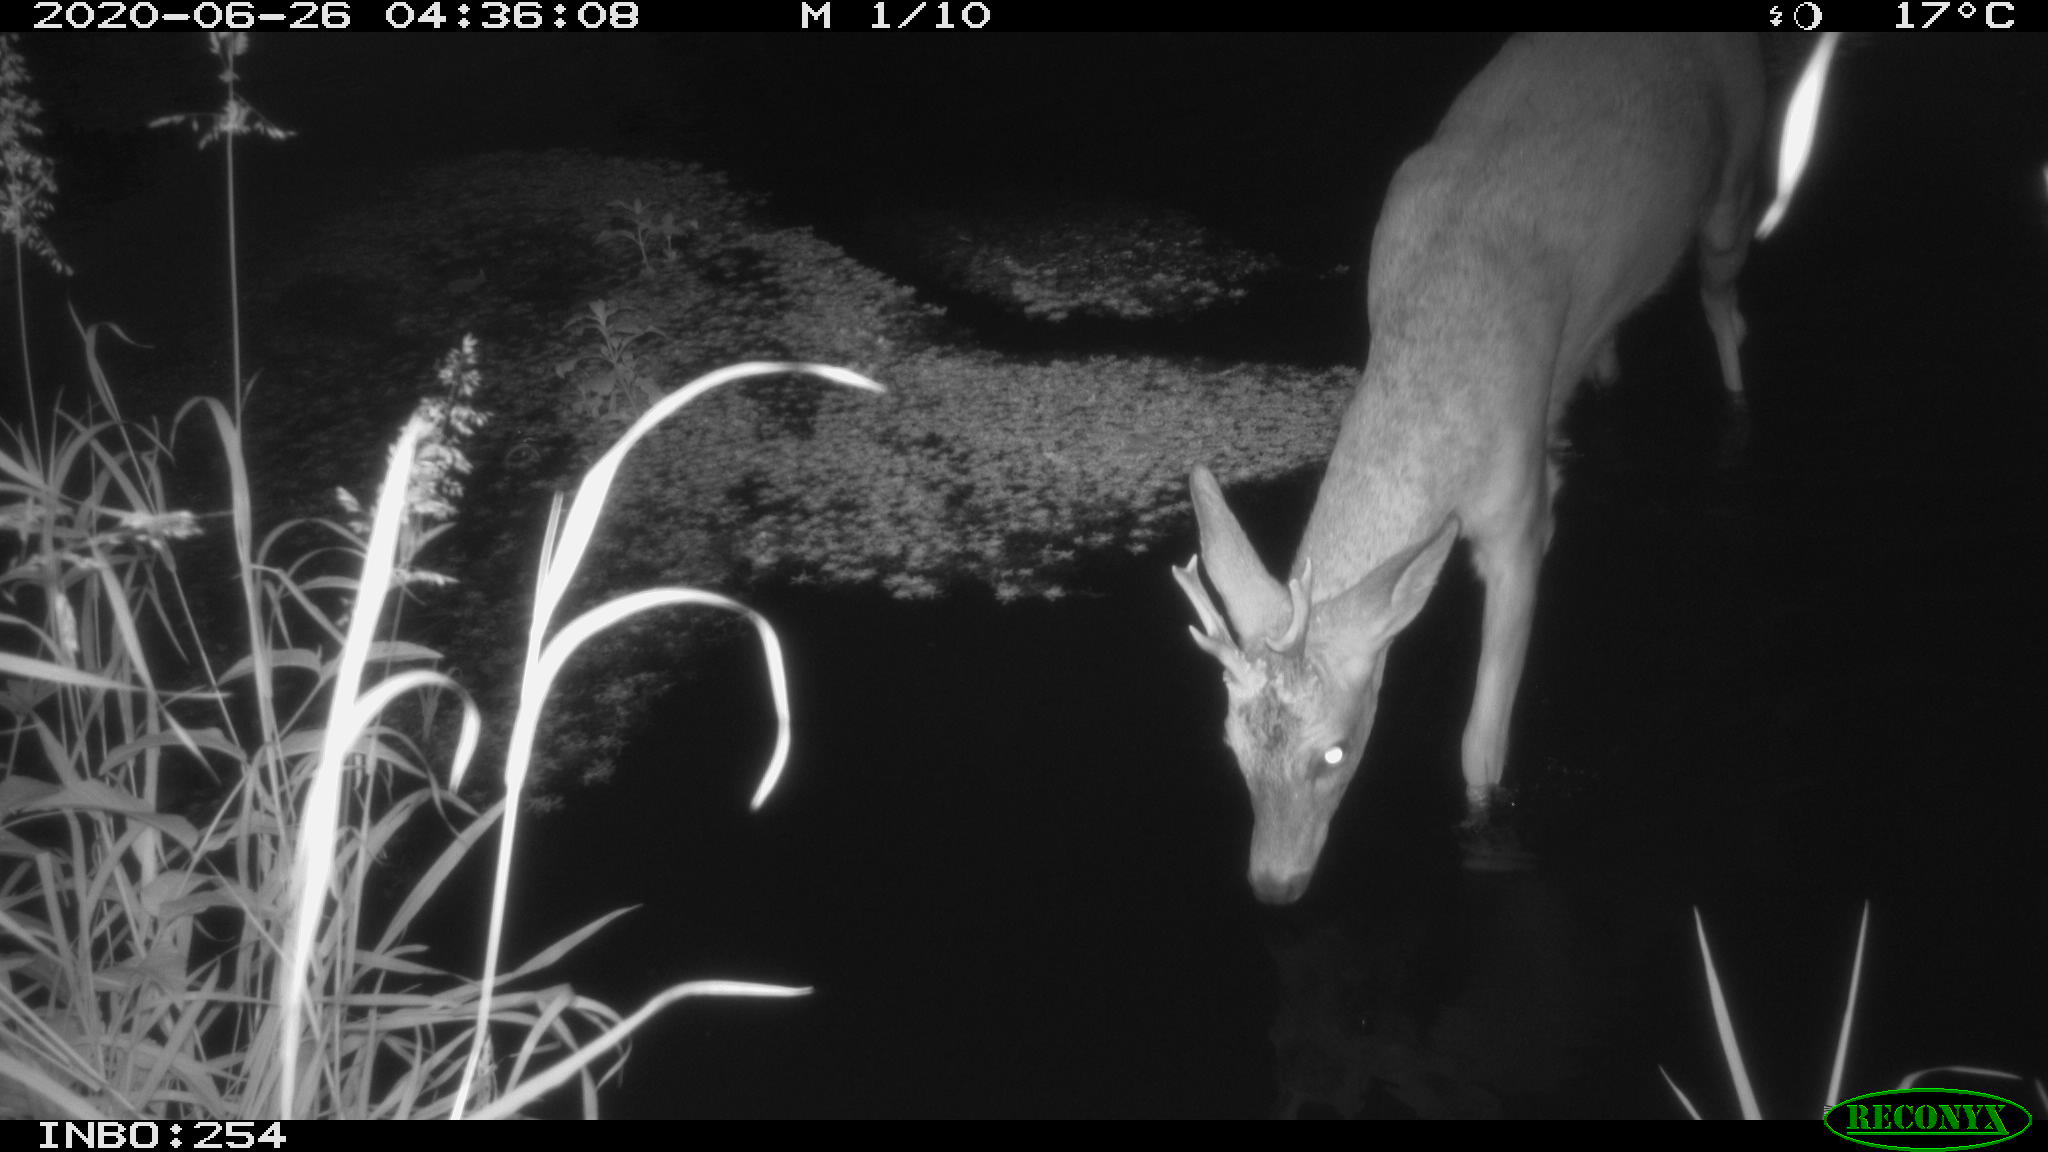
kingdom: Animalia
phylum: Chordata
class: Mammalia
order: Artiodactyla
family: Cervidae
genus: Capreolus
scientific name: Capreolus capreolus
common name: Western roe deer
